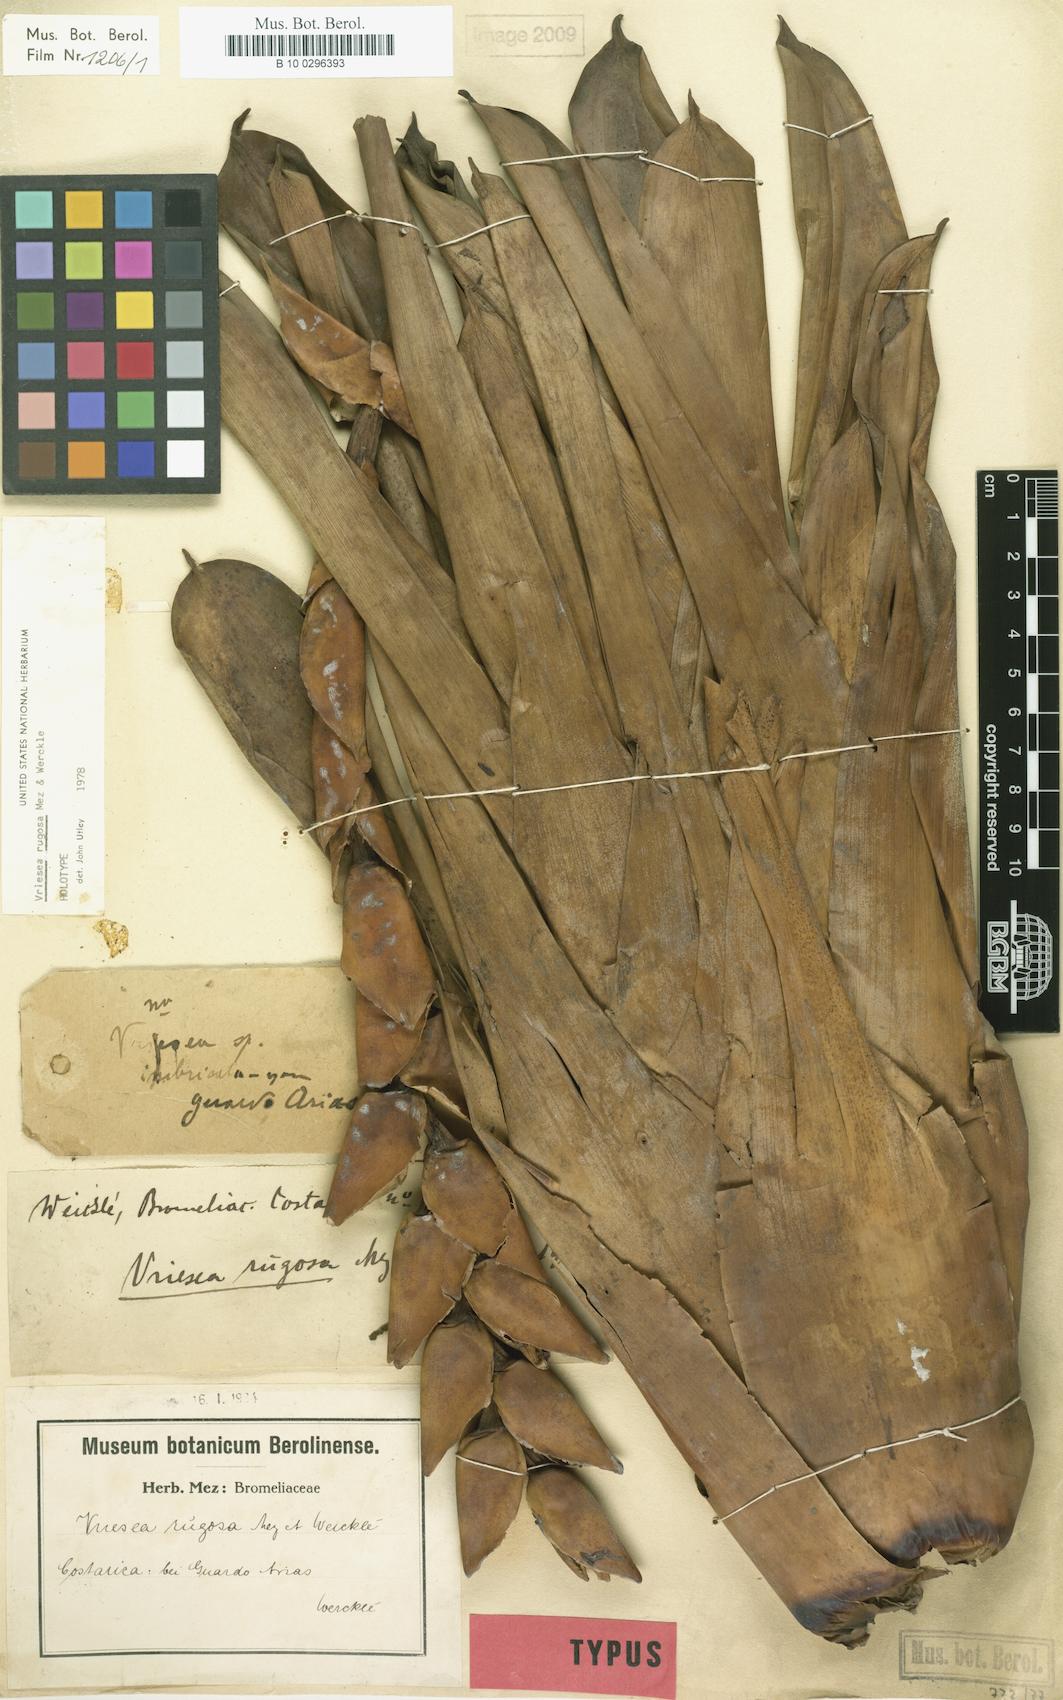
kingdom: Plantae
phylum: Tracheophyta
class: Liliopsida
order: Poales
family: Bromeliaceae
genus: Werauhia
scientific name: Werauhia rugosa
